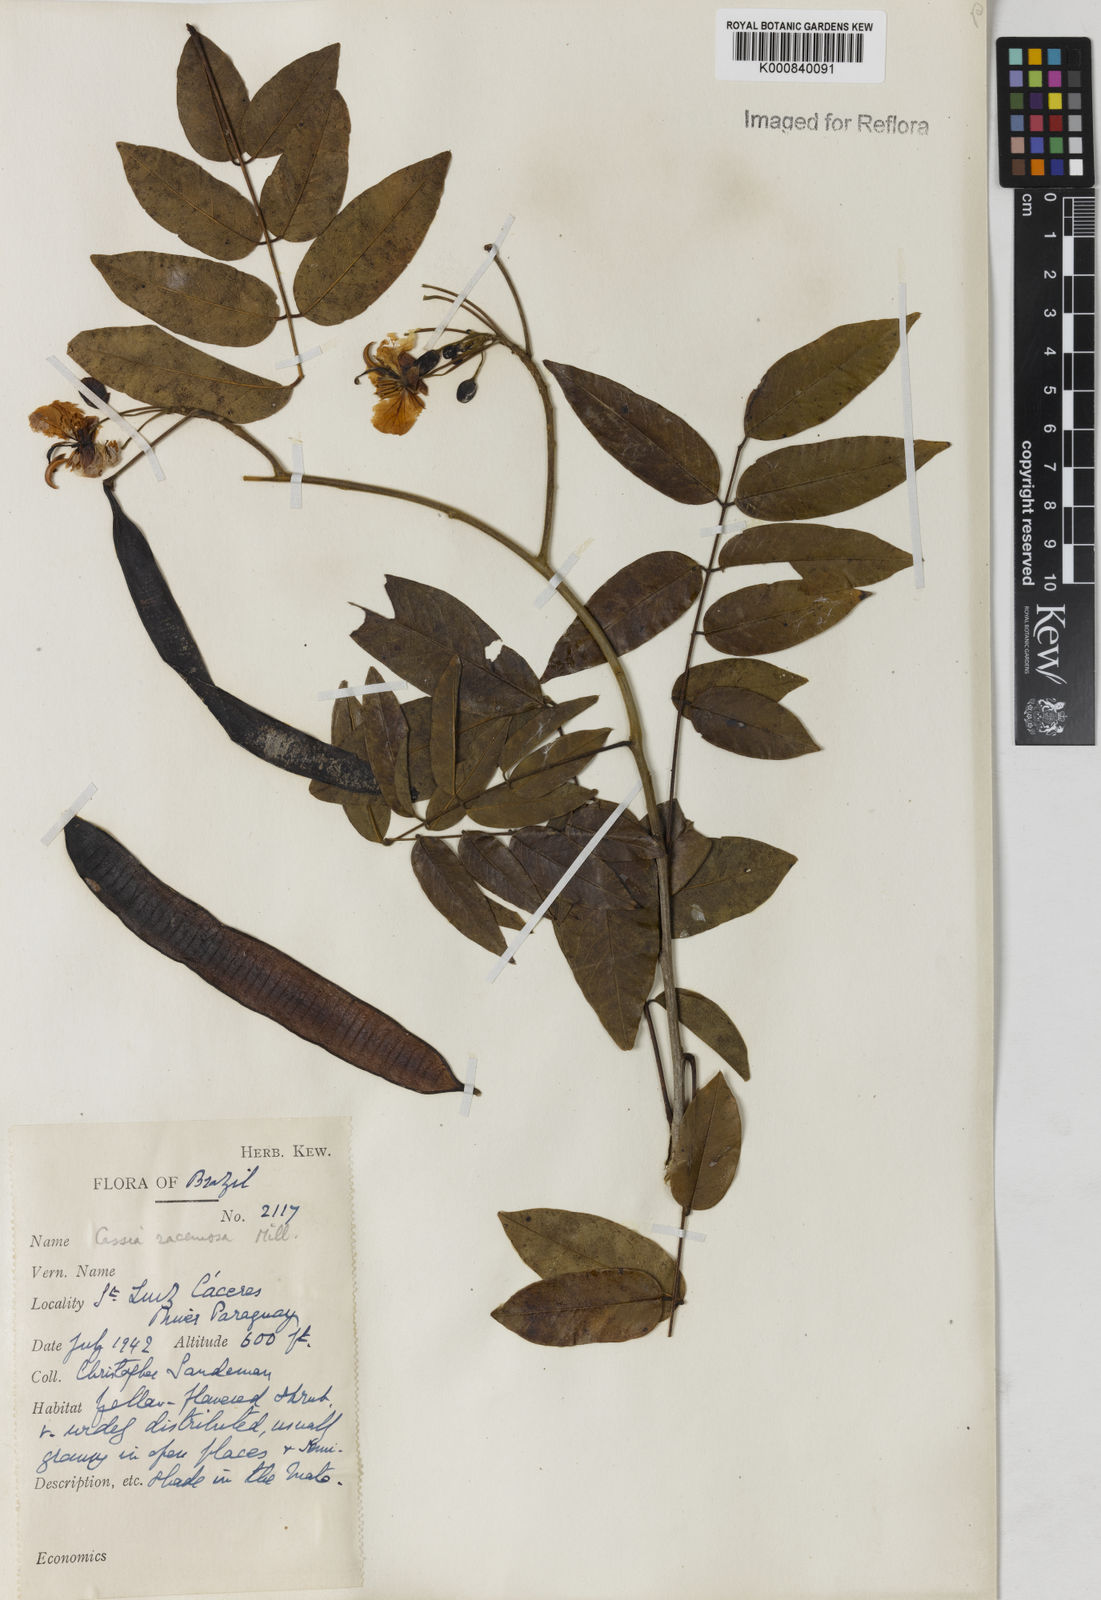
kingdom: Plantae
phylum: Tracheophyta
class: Magnoliopsida
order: Fabales
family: Fabaceae
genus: Senna
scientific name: Senna silvestris
